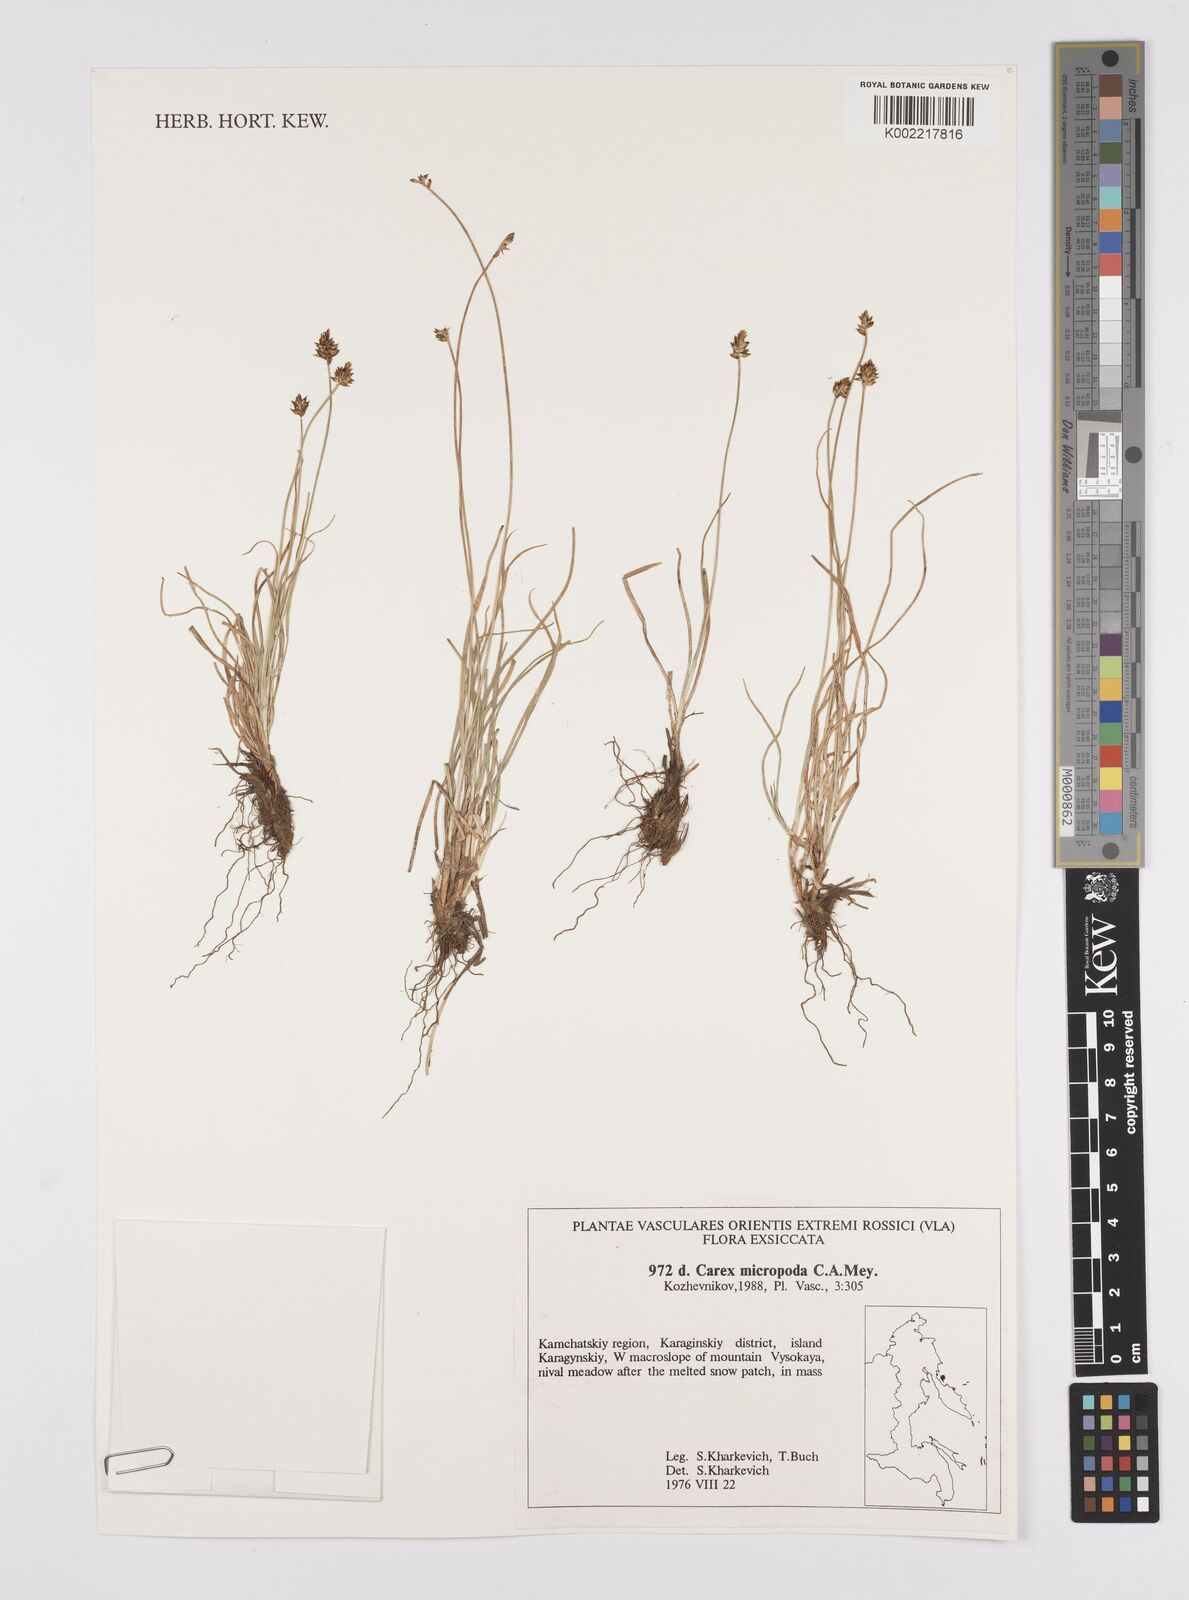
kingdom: Plantae
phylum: Tracheophyta
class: Liliopsida
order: Poales
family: Cyperaceae
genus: Carex
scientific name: Carex
